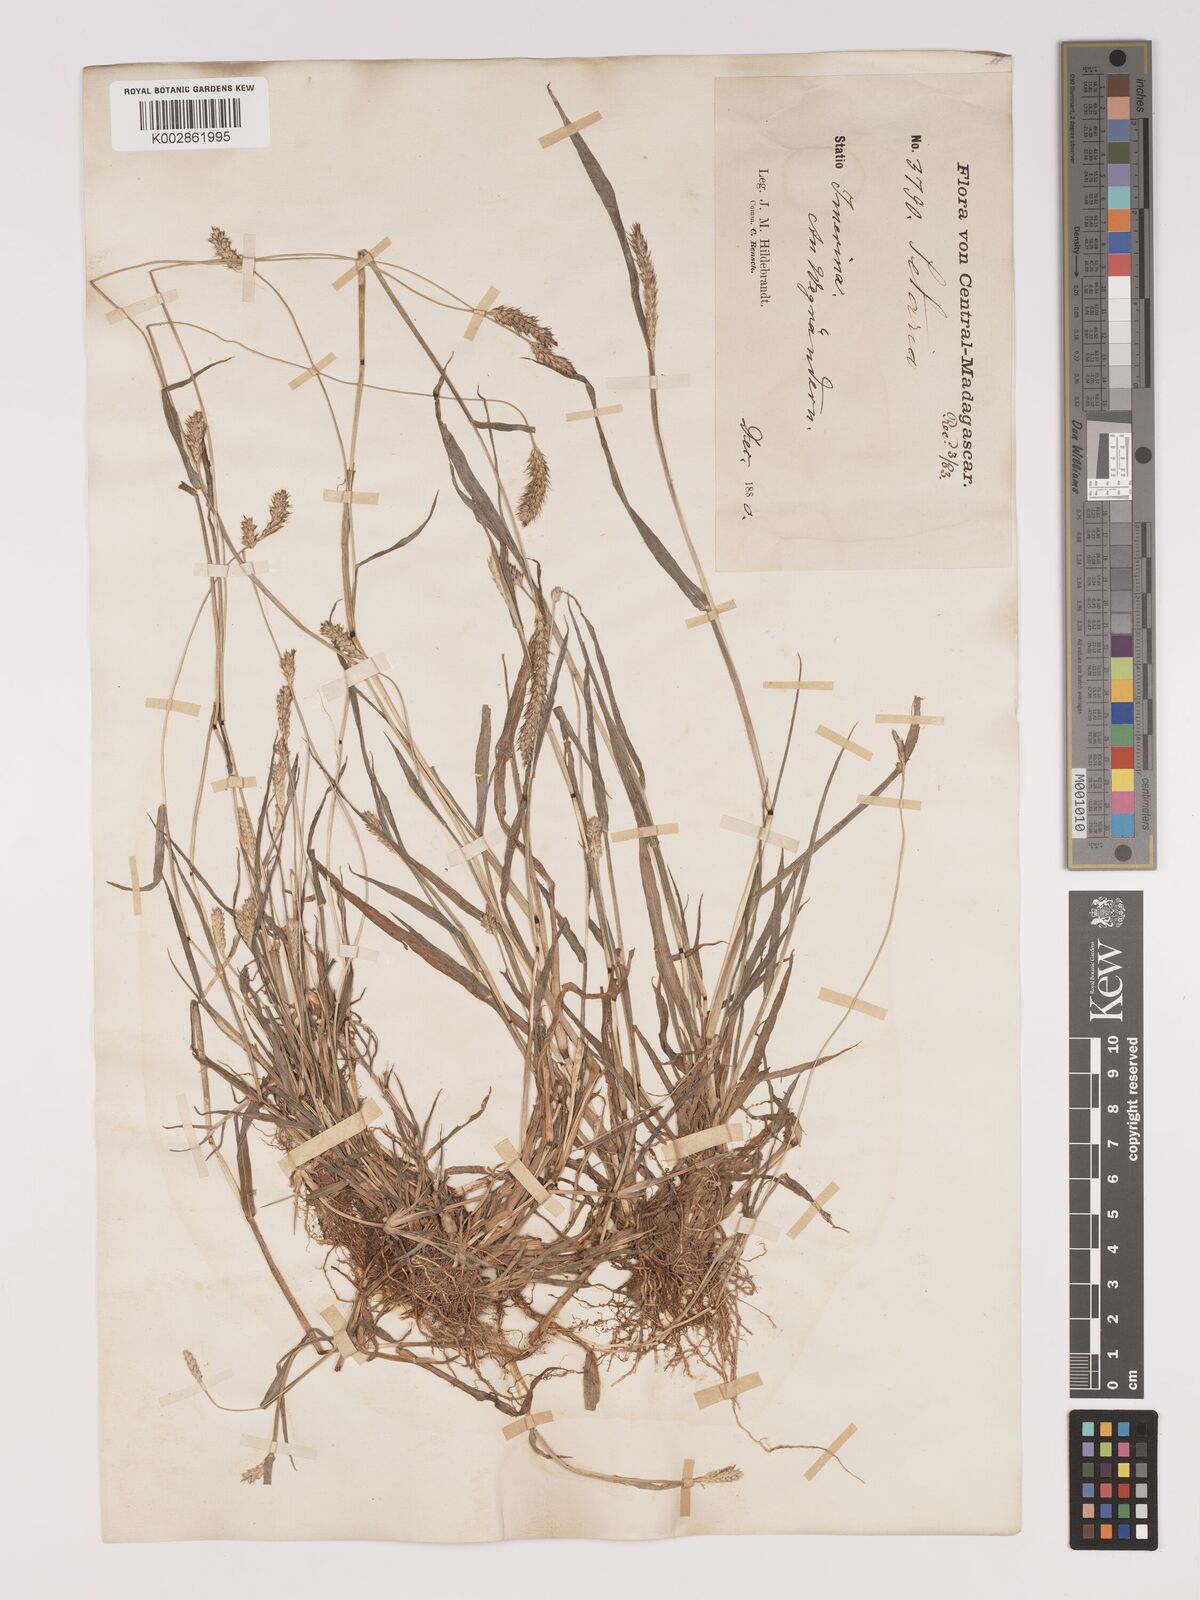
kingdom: Plantae
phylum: Tracheophyta
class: Liliopsida
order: Poales
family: Poaceae
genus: Setaria
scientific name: Setaria pumila
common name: Yellow bristle-grass
